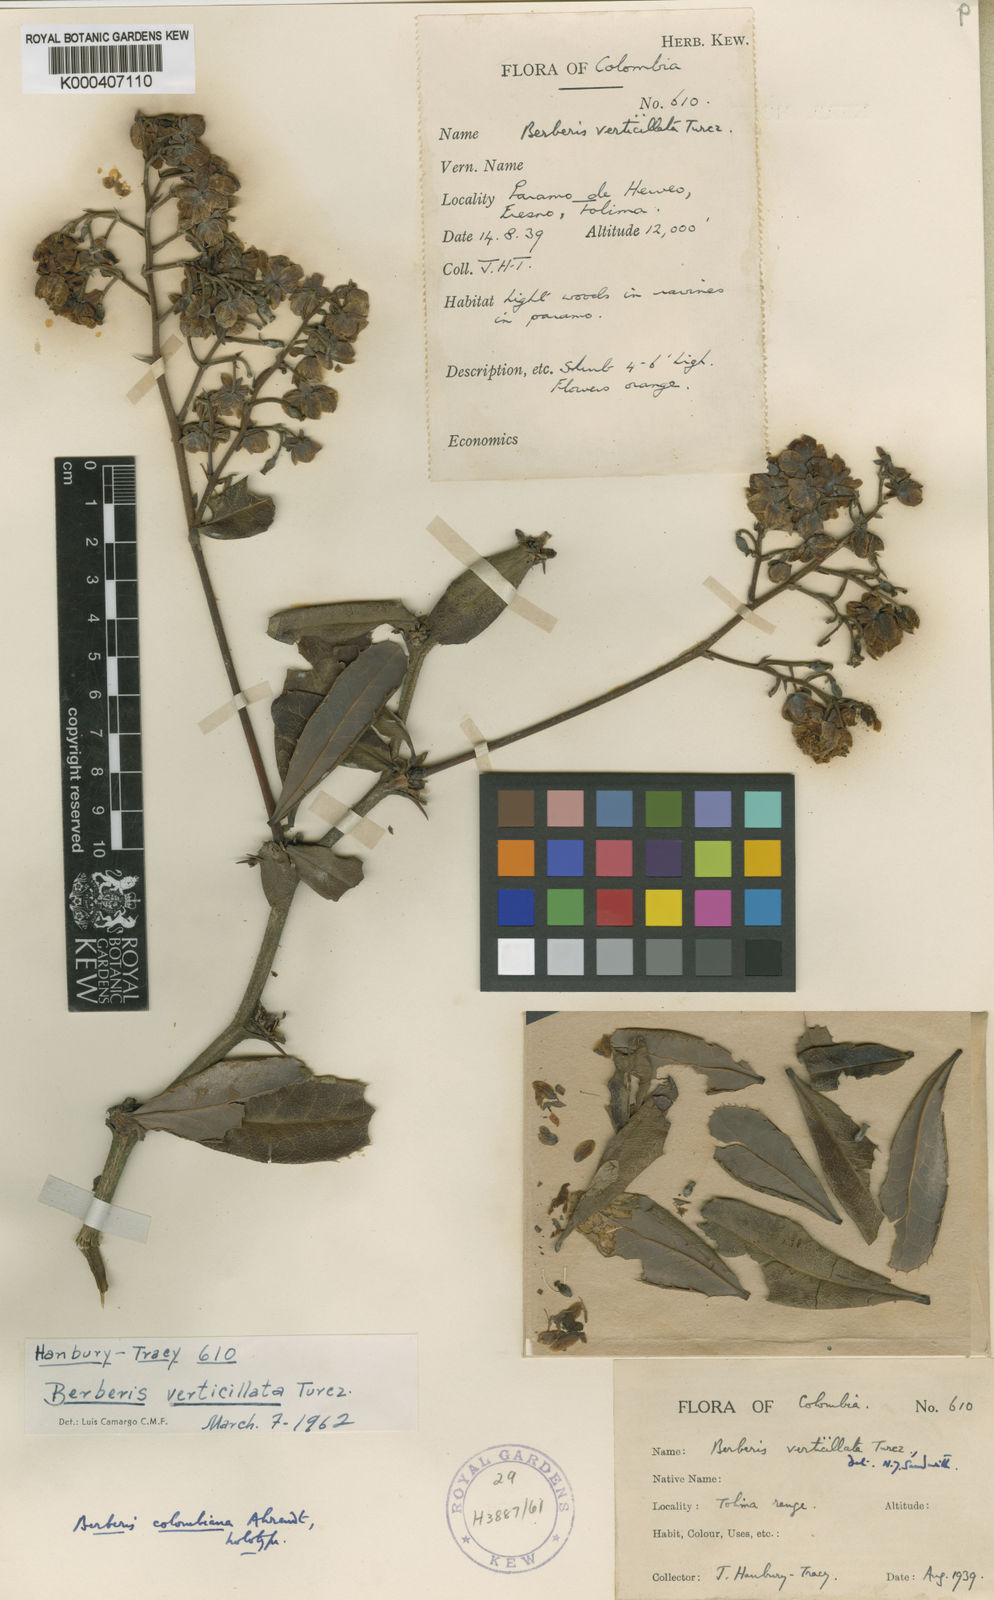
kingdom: Plantae
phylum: Tracheophyta
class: Magnoliopsida
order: Ranunculales
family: Berberidaceae
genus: Berberis
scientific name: Berberis verticillata
